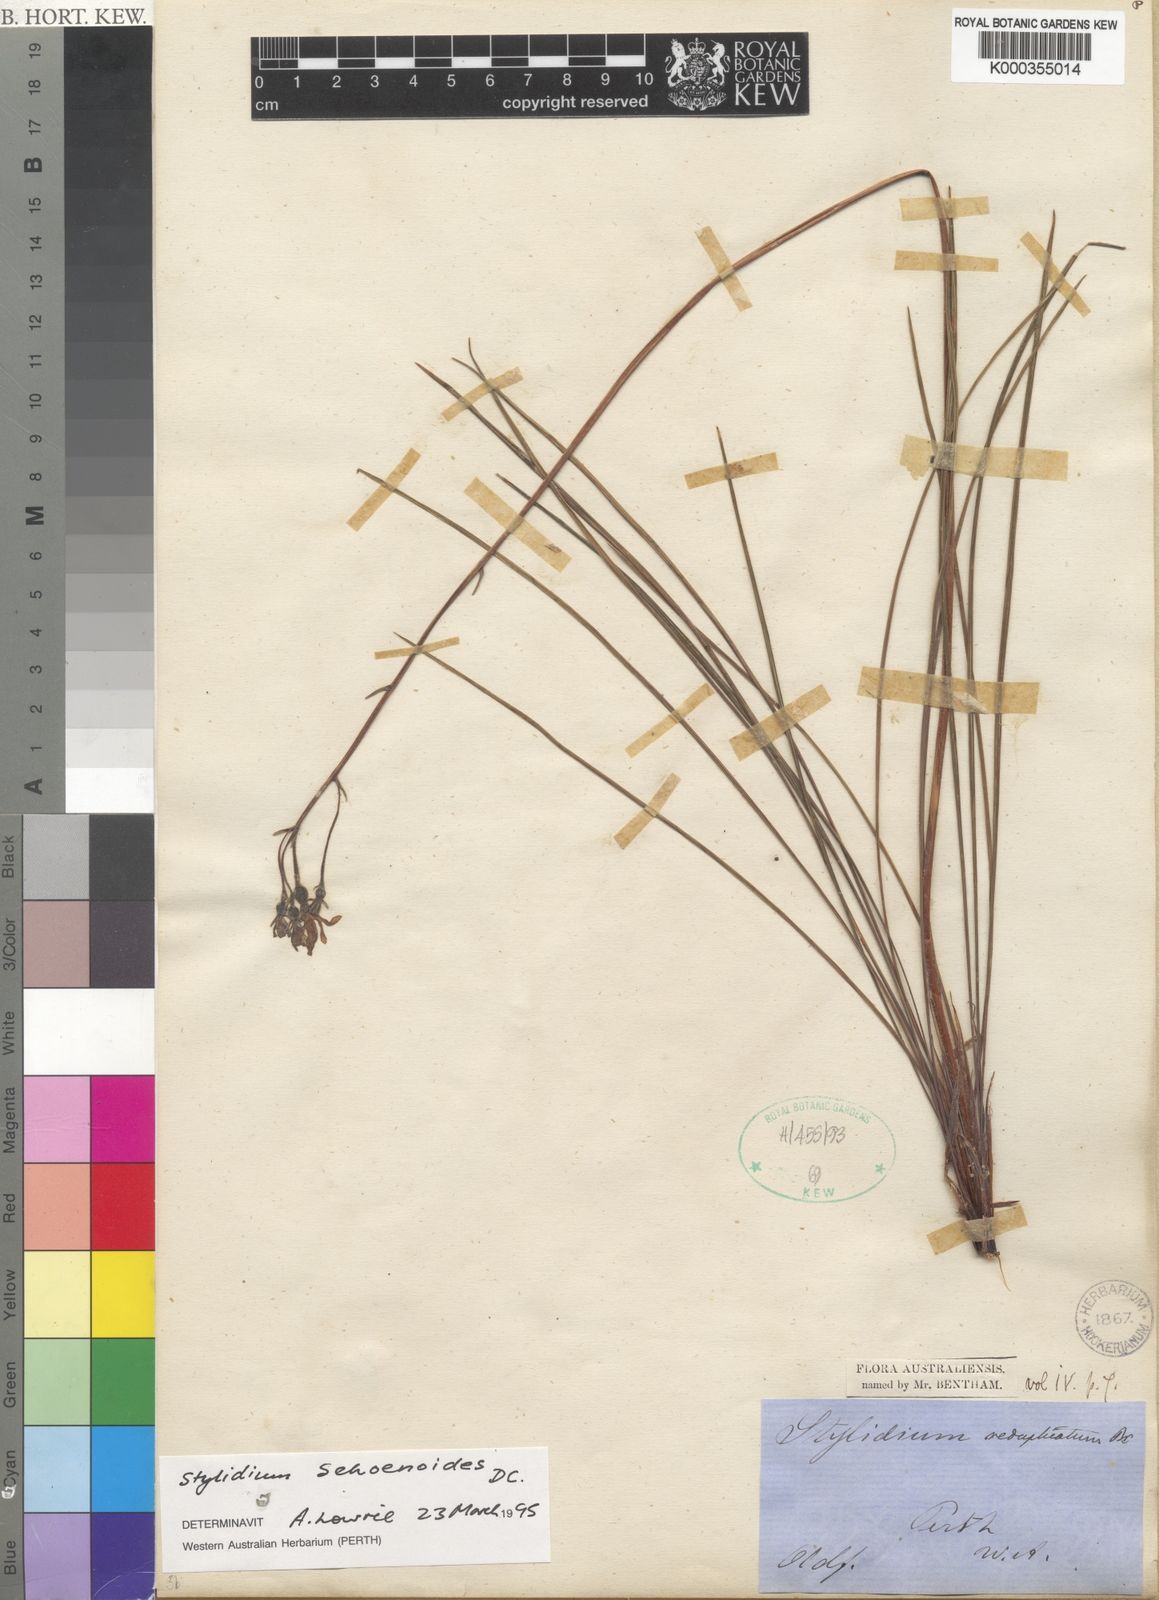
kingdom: Plantae
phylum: Tracheophyta
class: Magnoliopsida
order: Asterales
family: Stylidiaceae
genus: Stylidium
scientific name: Stylidium schoenoides
